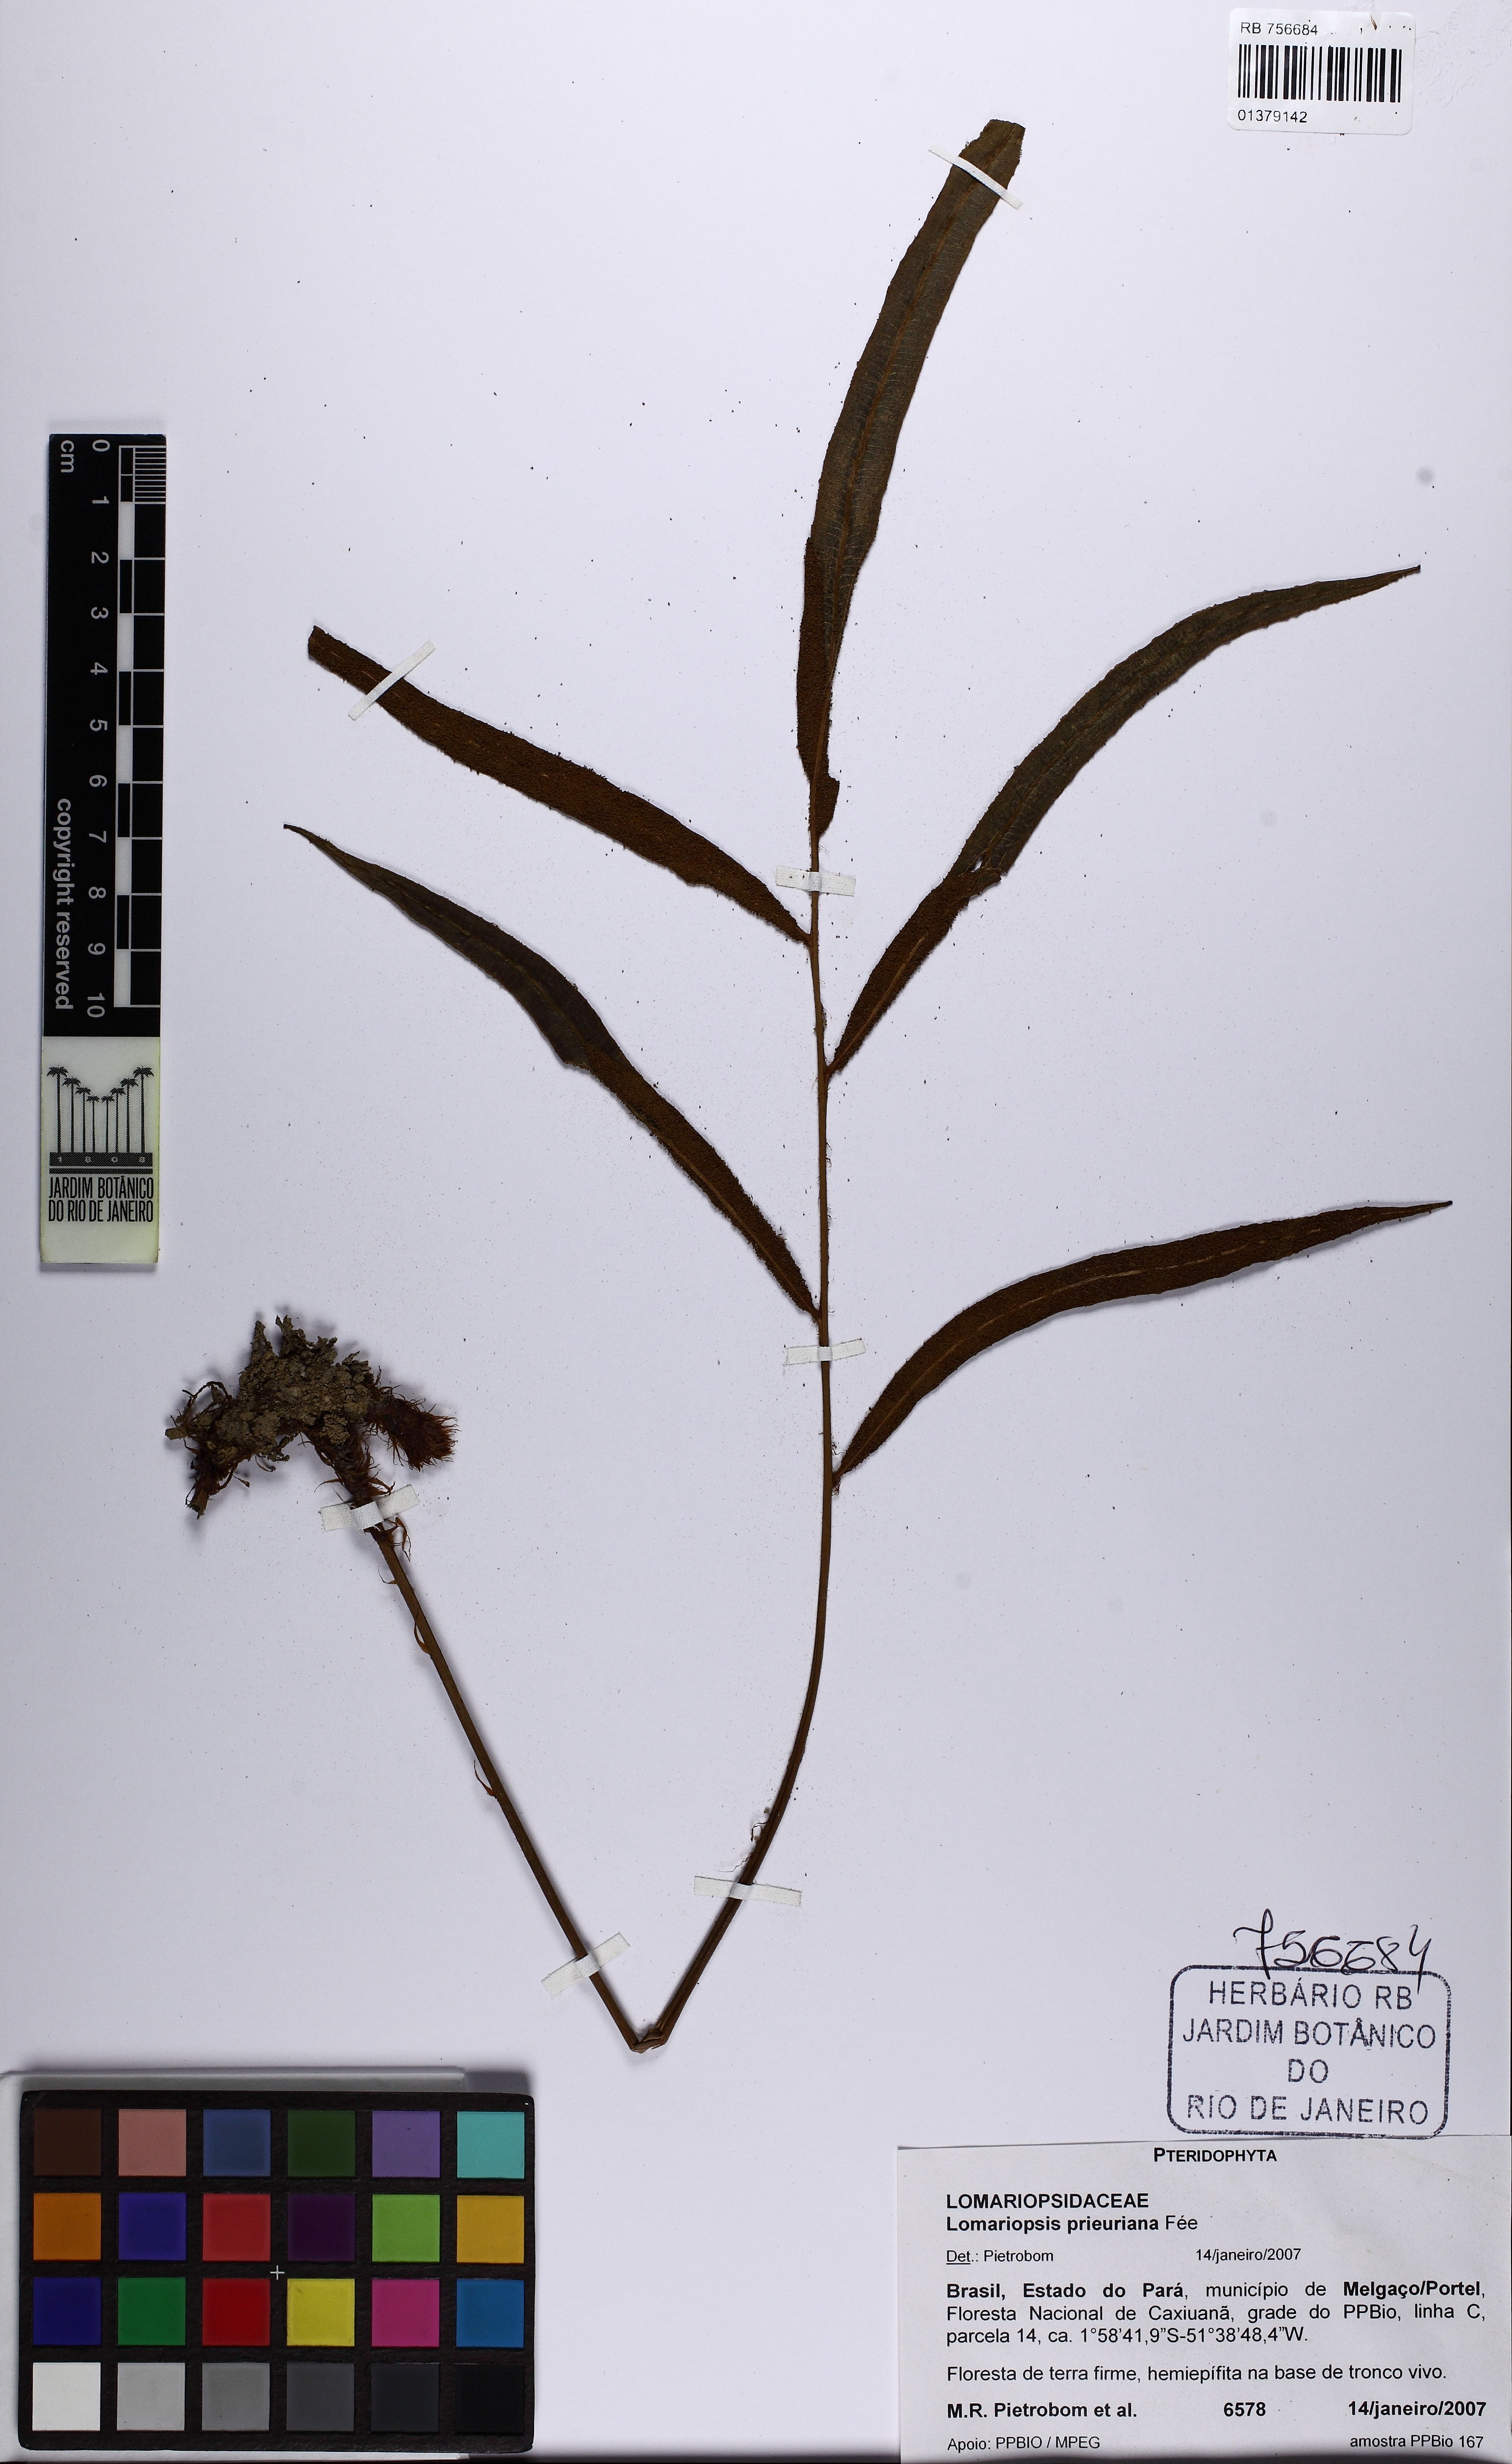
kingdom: Plantae
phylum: Tracheophyta
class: Polypodiopsida
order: Polypodiales
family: Lomariopsidaceae
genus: Lomariopsis
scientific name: Lomariopsis prieuriana
